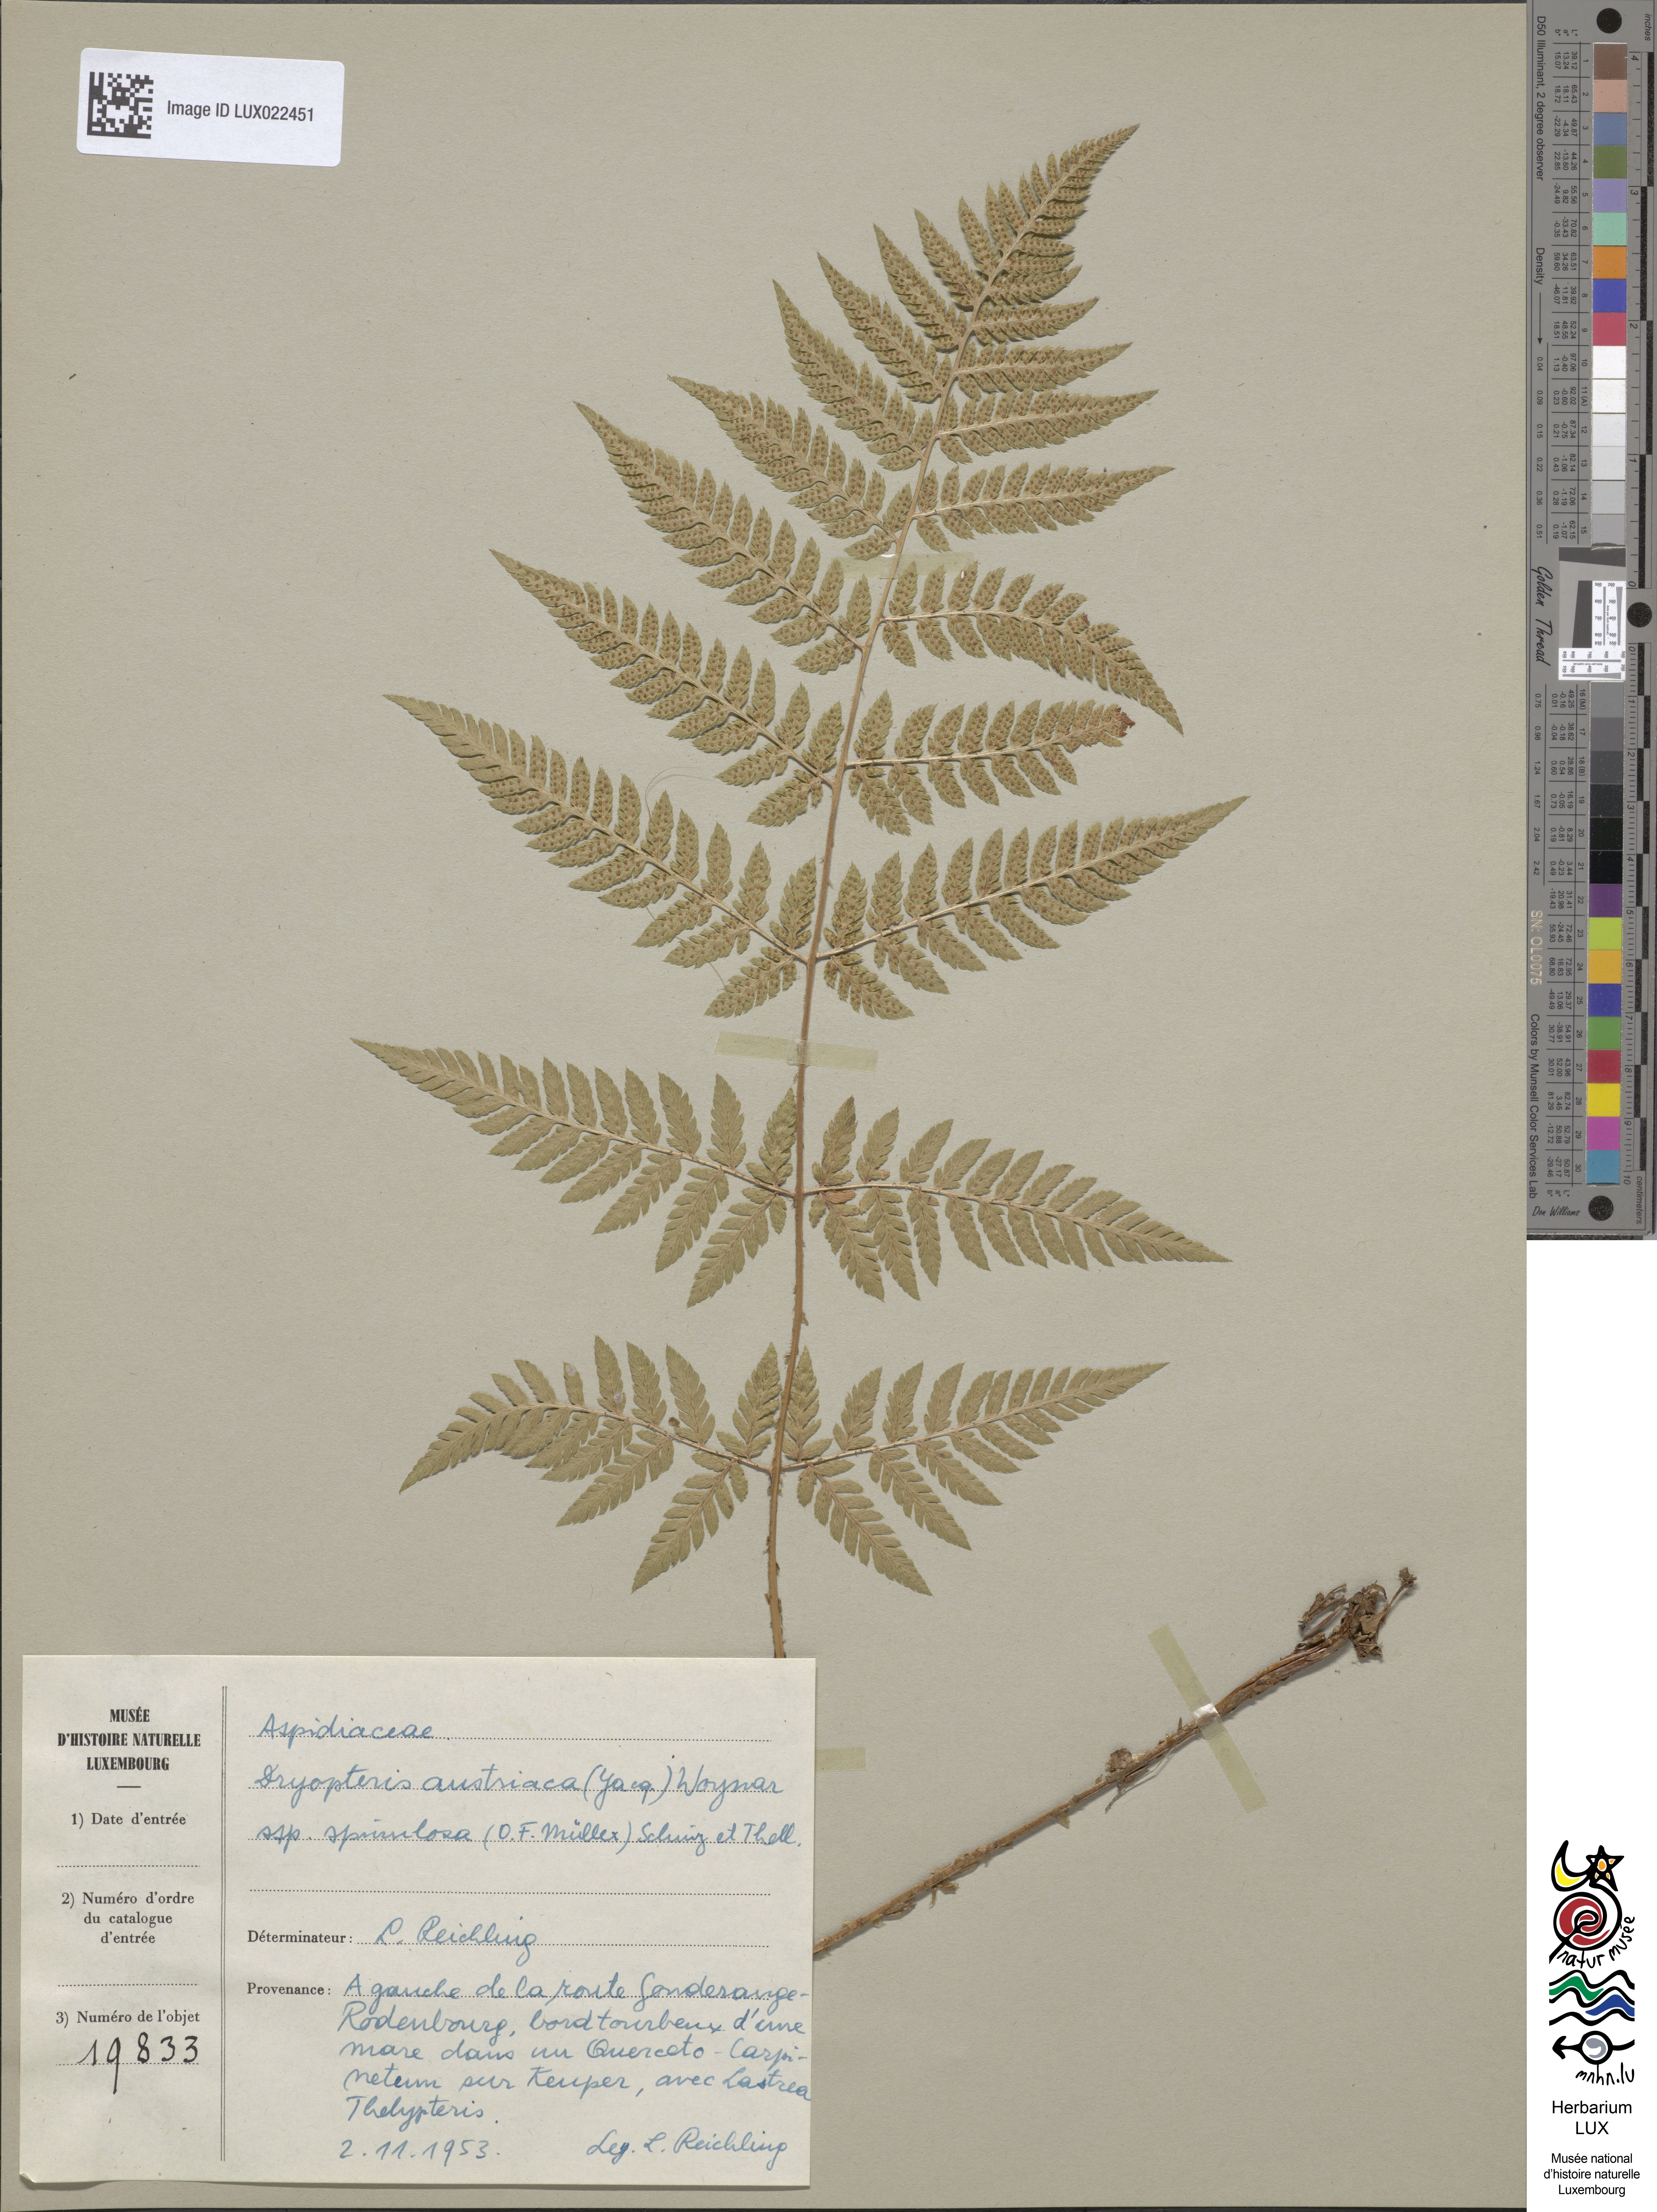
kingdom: Plantae
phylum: Tracheophyta
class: Polypodiopsida
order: Polypodiales
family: Dryopteridaceae
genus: Dryopteris
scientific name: Dryopteris carthusiana
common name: Narrow buckler-fern
